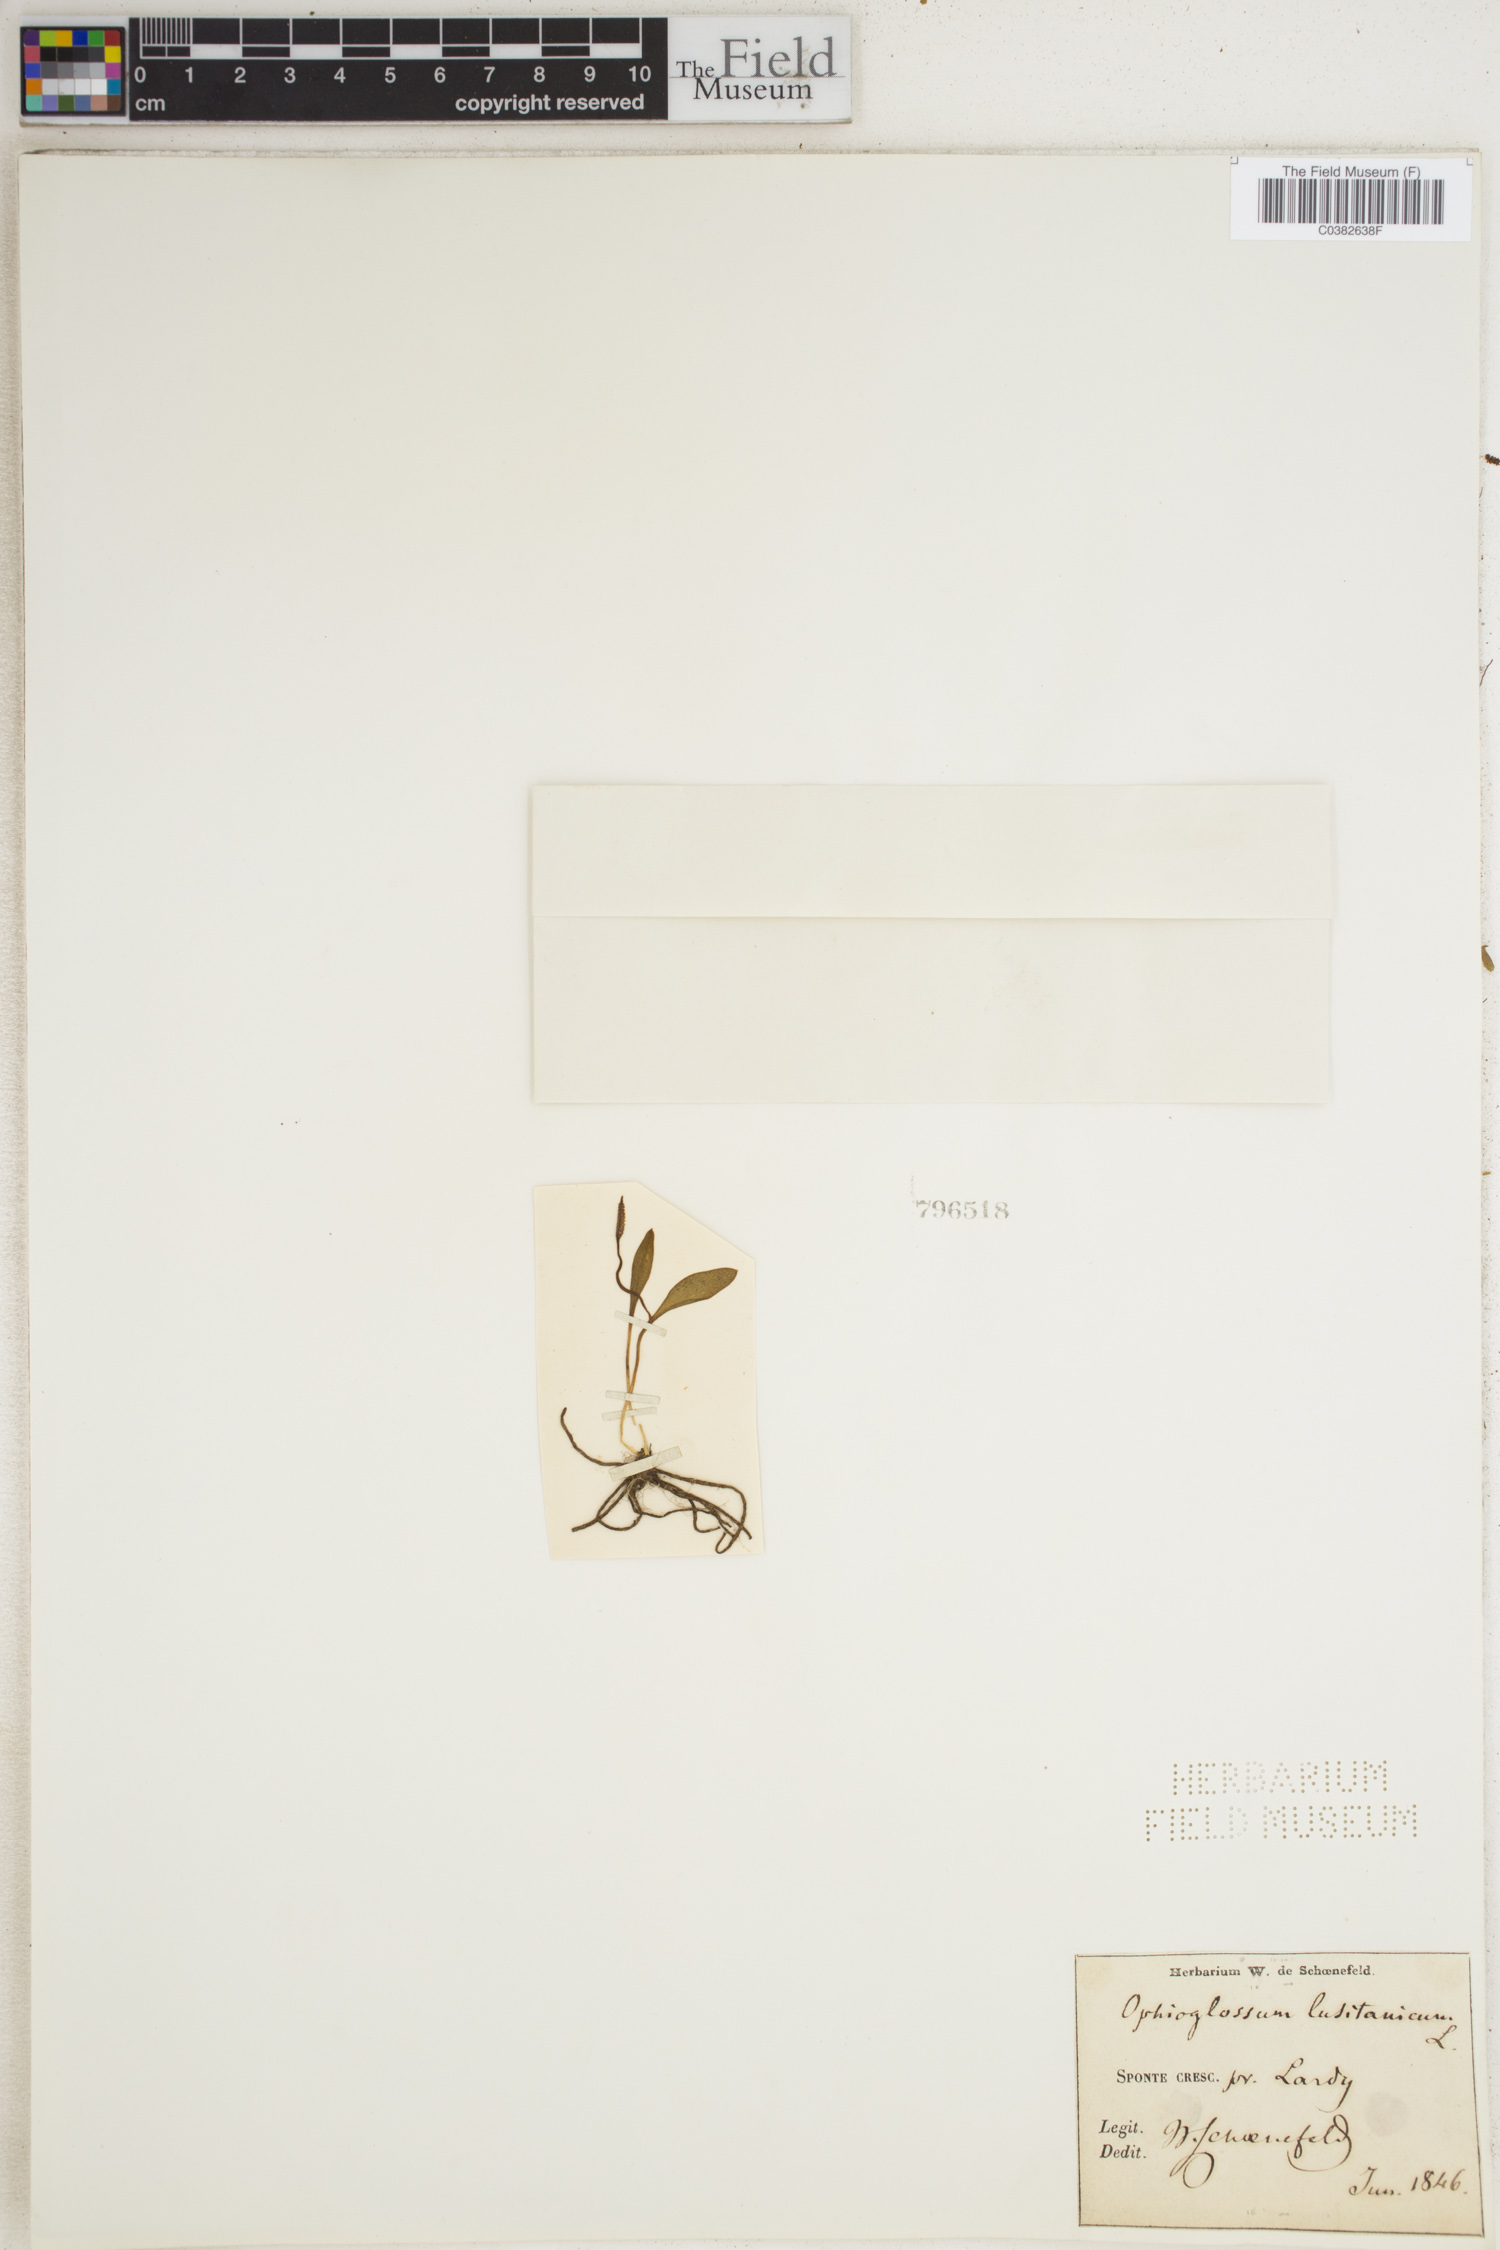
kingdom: Plantae
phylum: Tracheophyta
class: Polypodiopsida
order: Ophioglossales
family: Ophioglossaceae
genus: Ophioglossum
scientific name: Ophioglossum lusitanicum
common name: Least adder's-tongue
